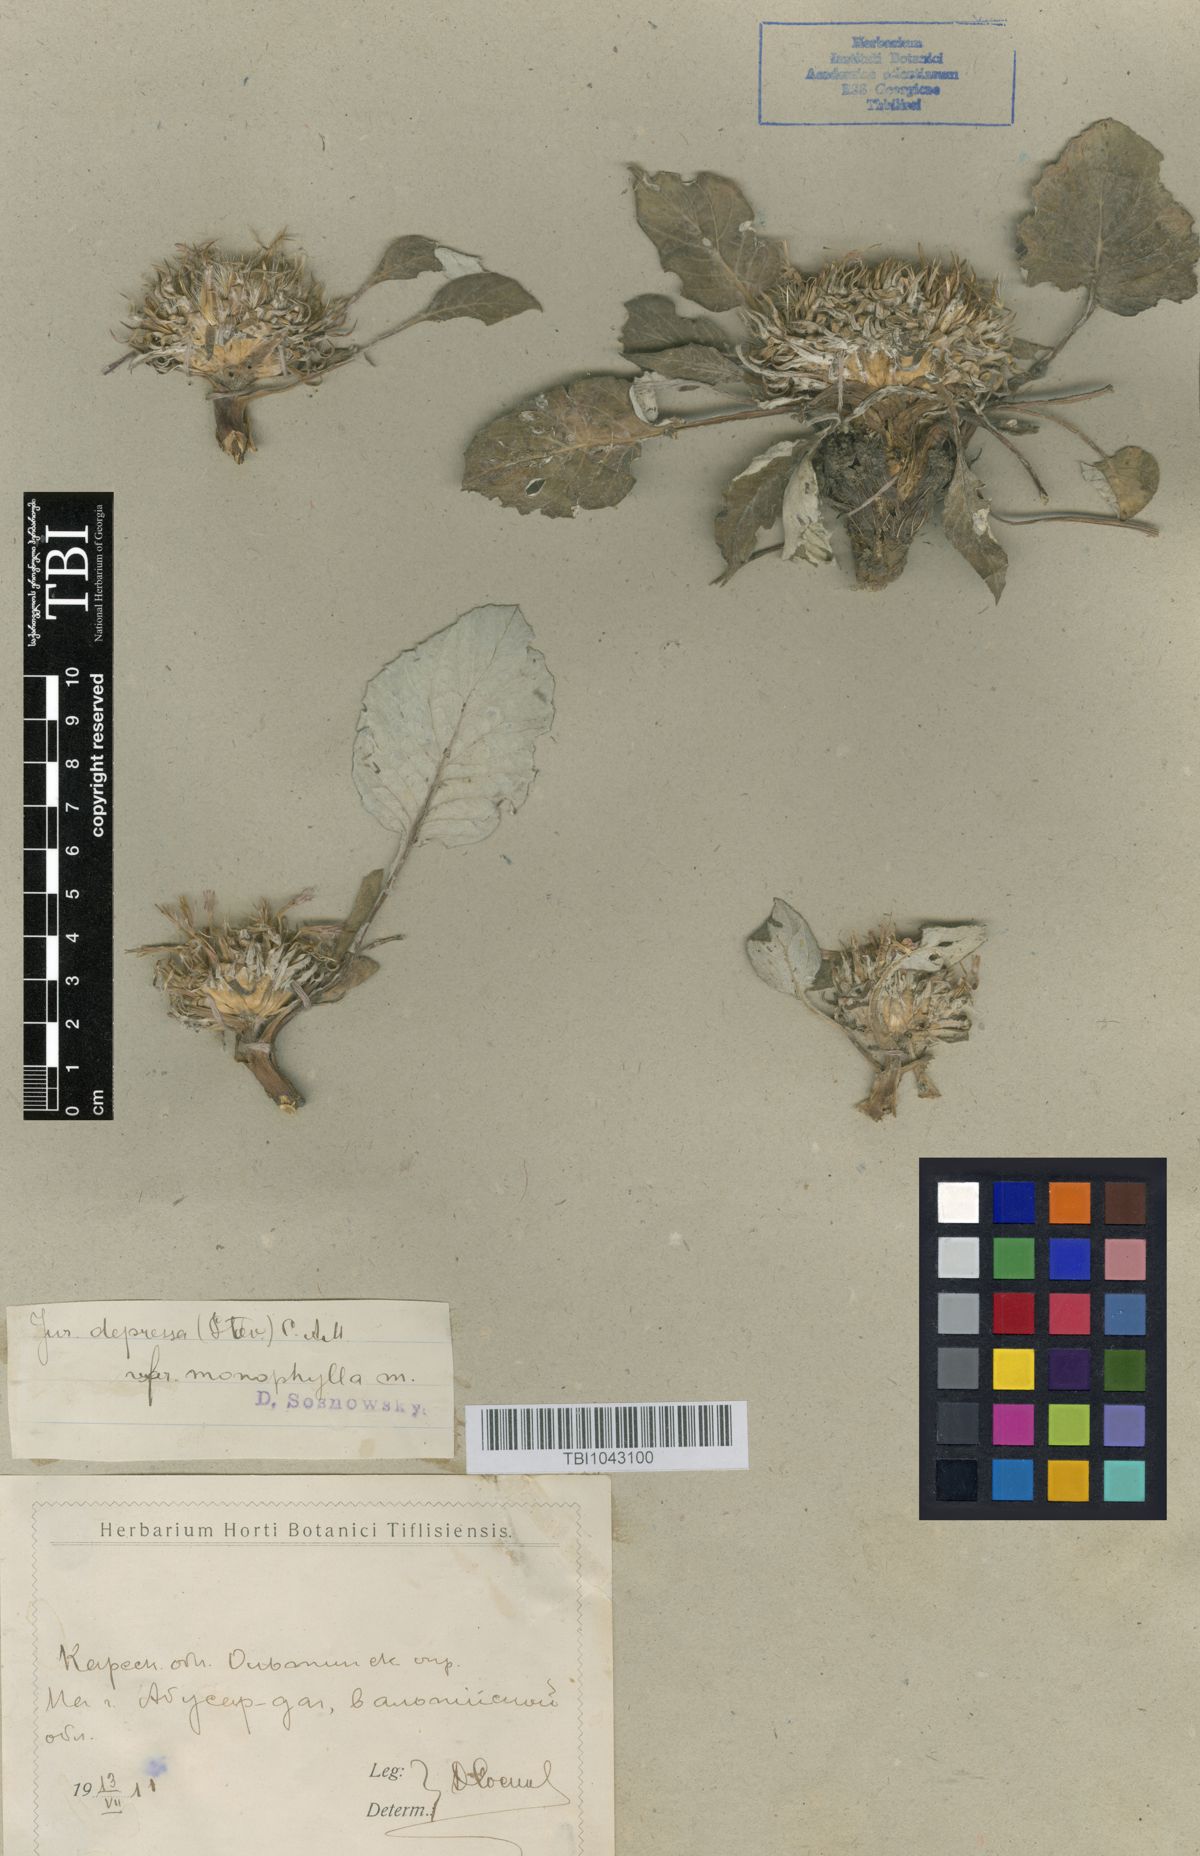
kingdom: Plantae
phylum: Tracheophyta
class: Magnoliopsida
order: Asterales
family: Asteraceae
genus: Jurinea
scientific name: Jurinea moschus
